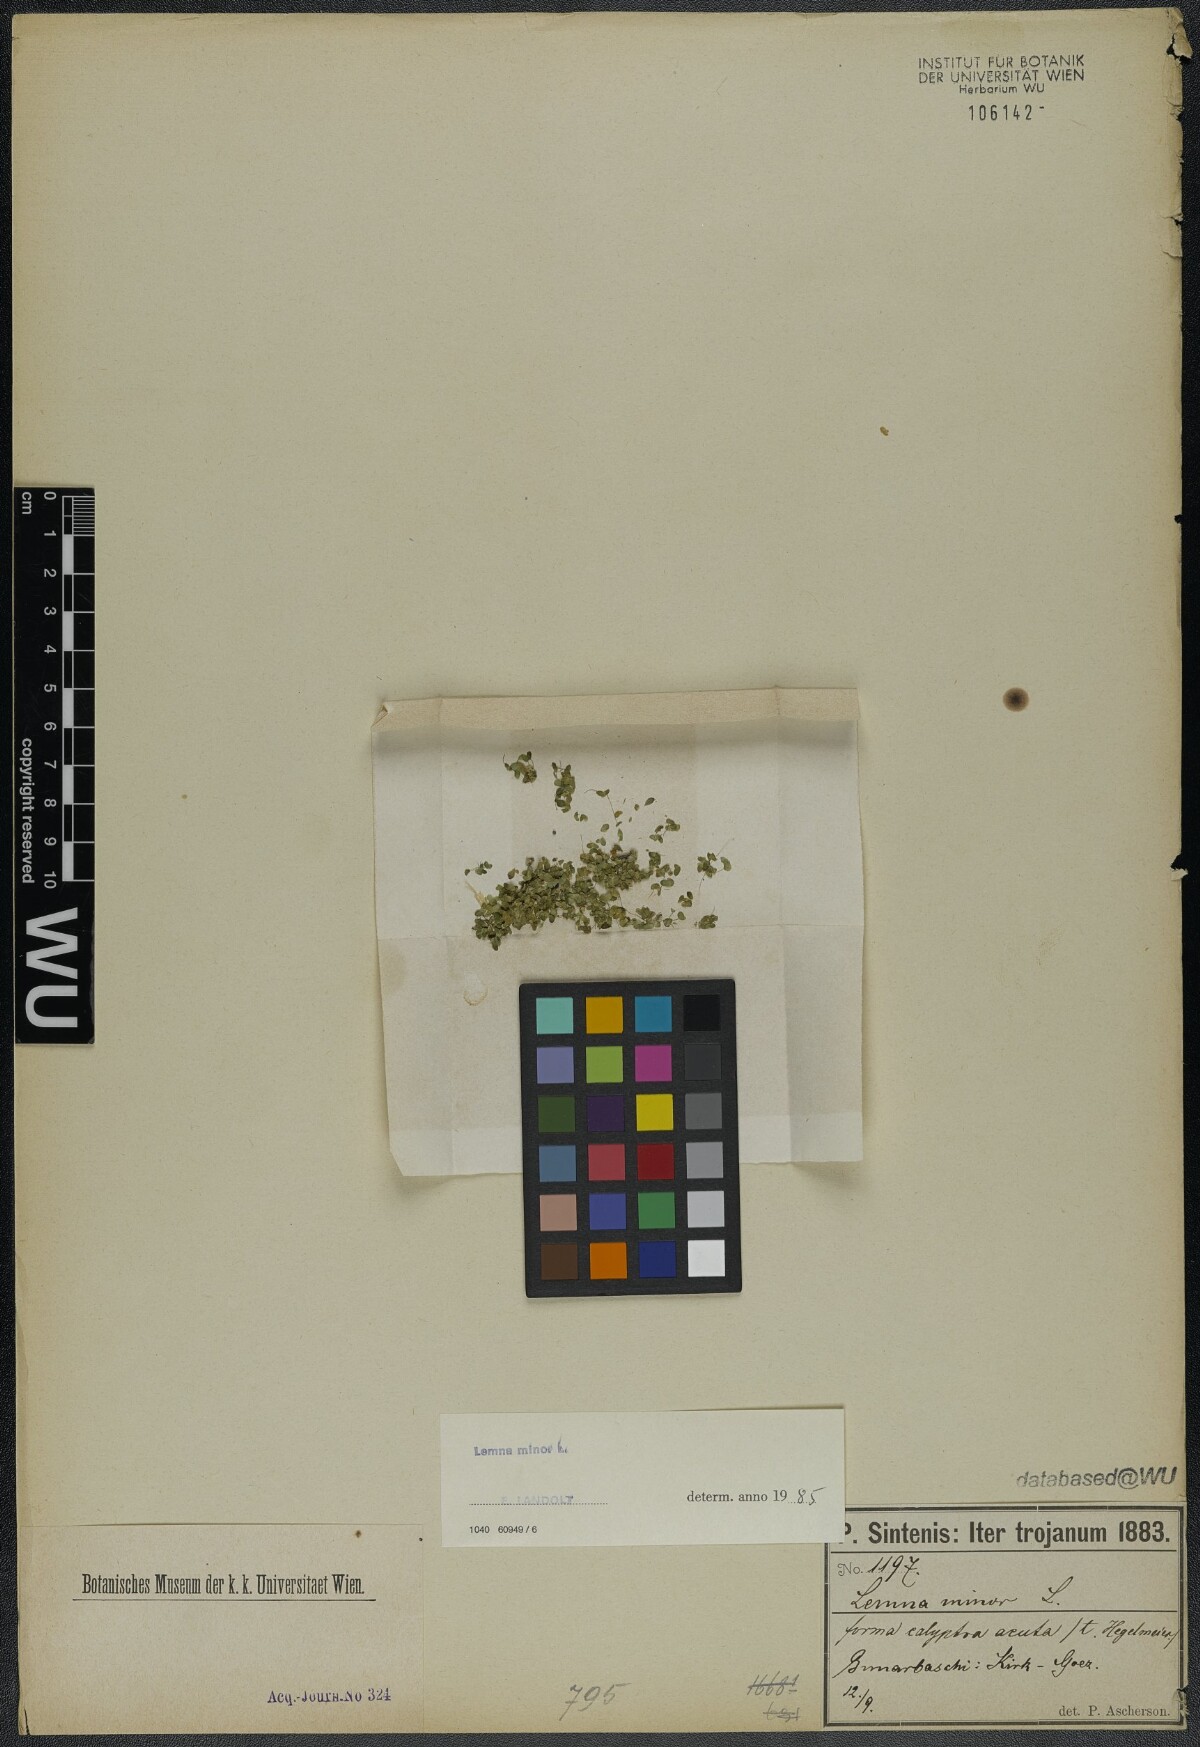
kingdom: Plantae
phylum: Tracheophyta
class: Liliopsida
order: Alismatales
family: Araceae
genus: Lemna
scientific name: Lemna minor
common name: Common duckweed
